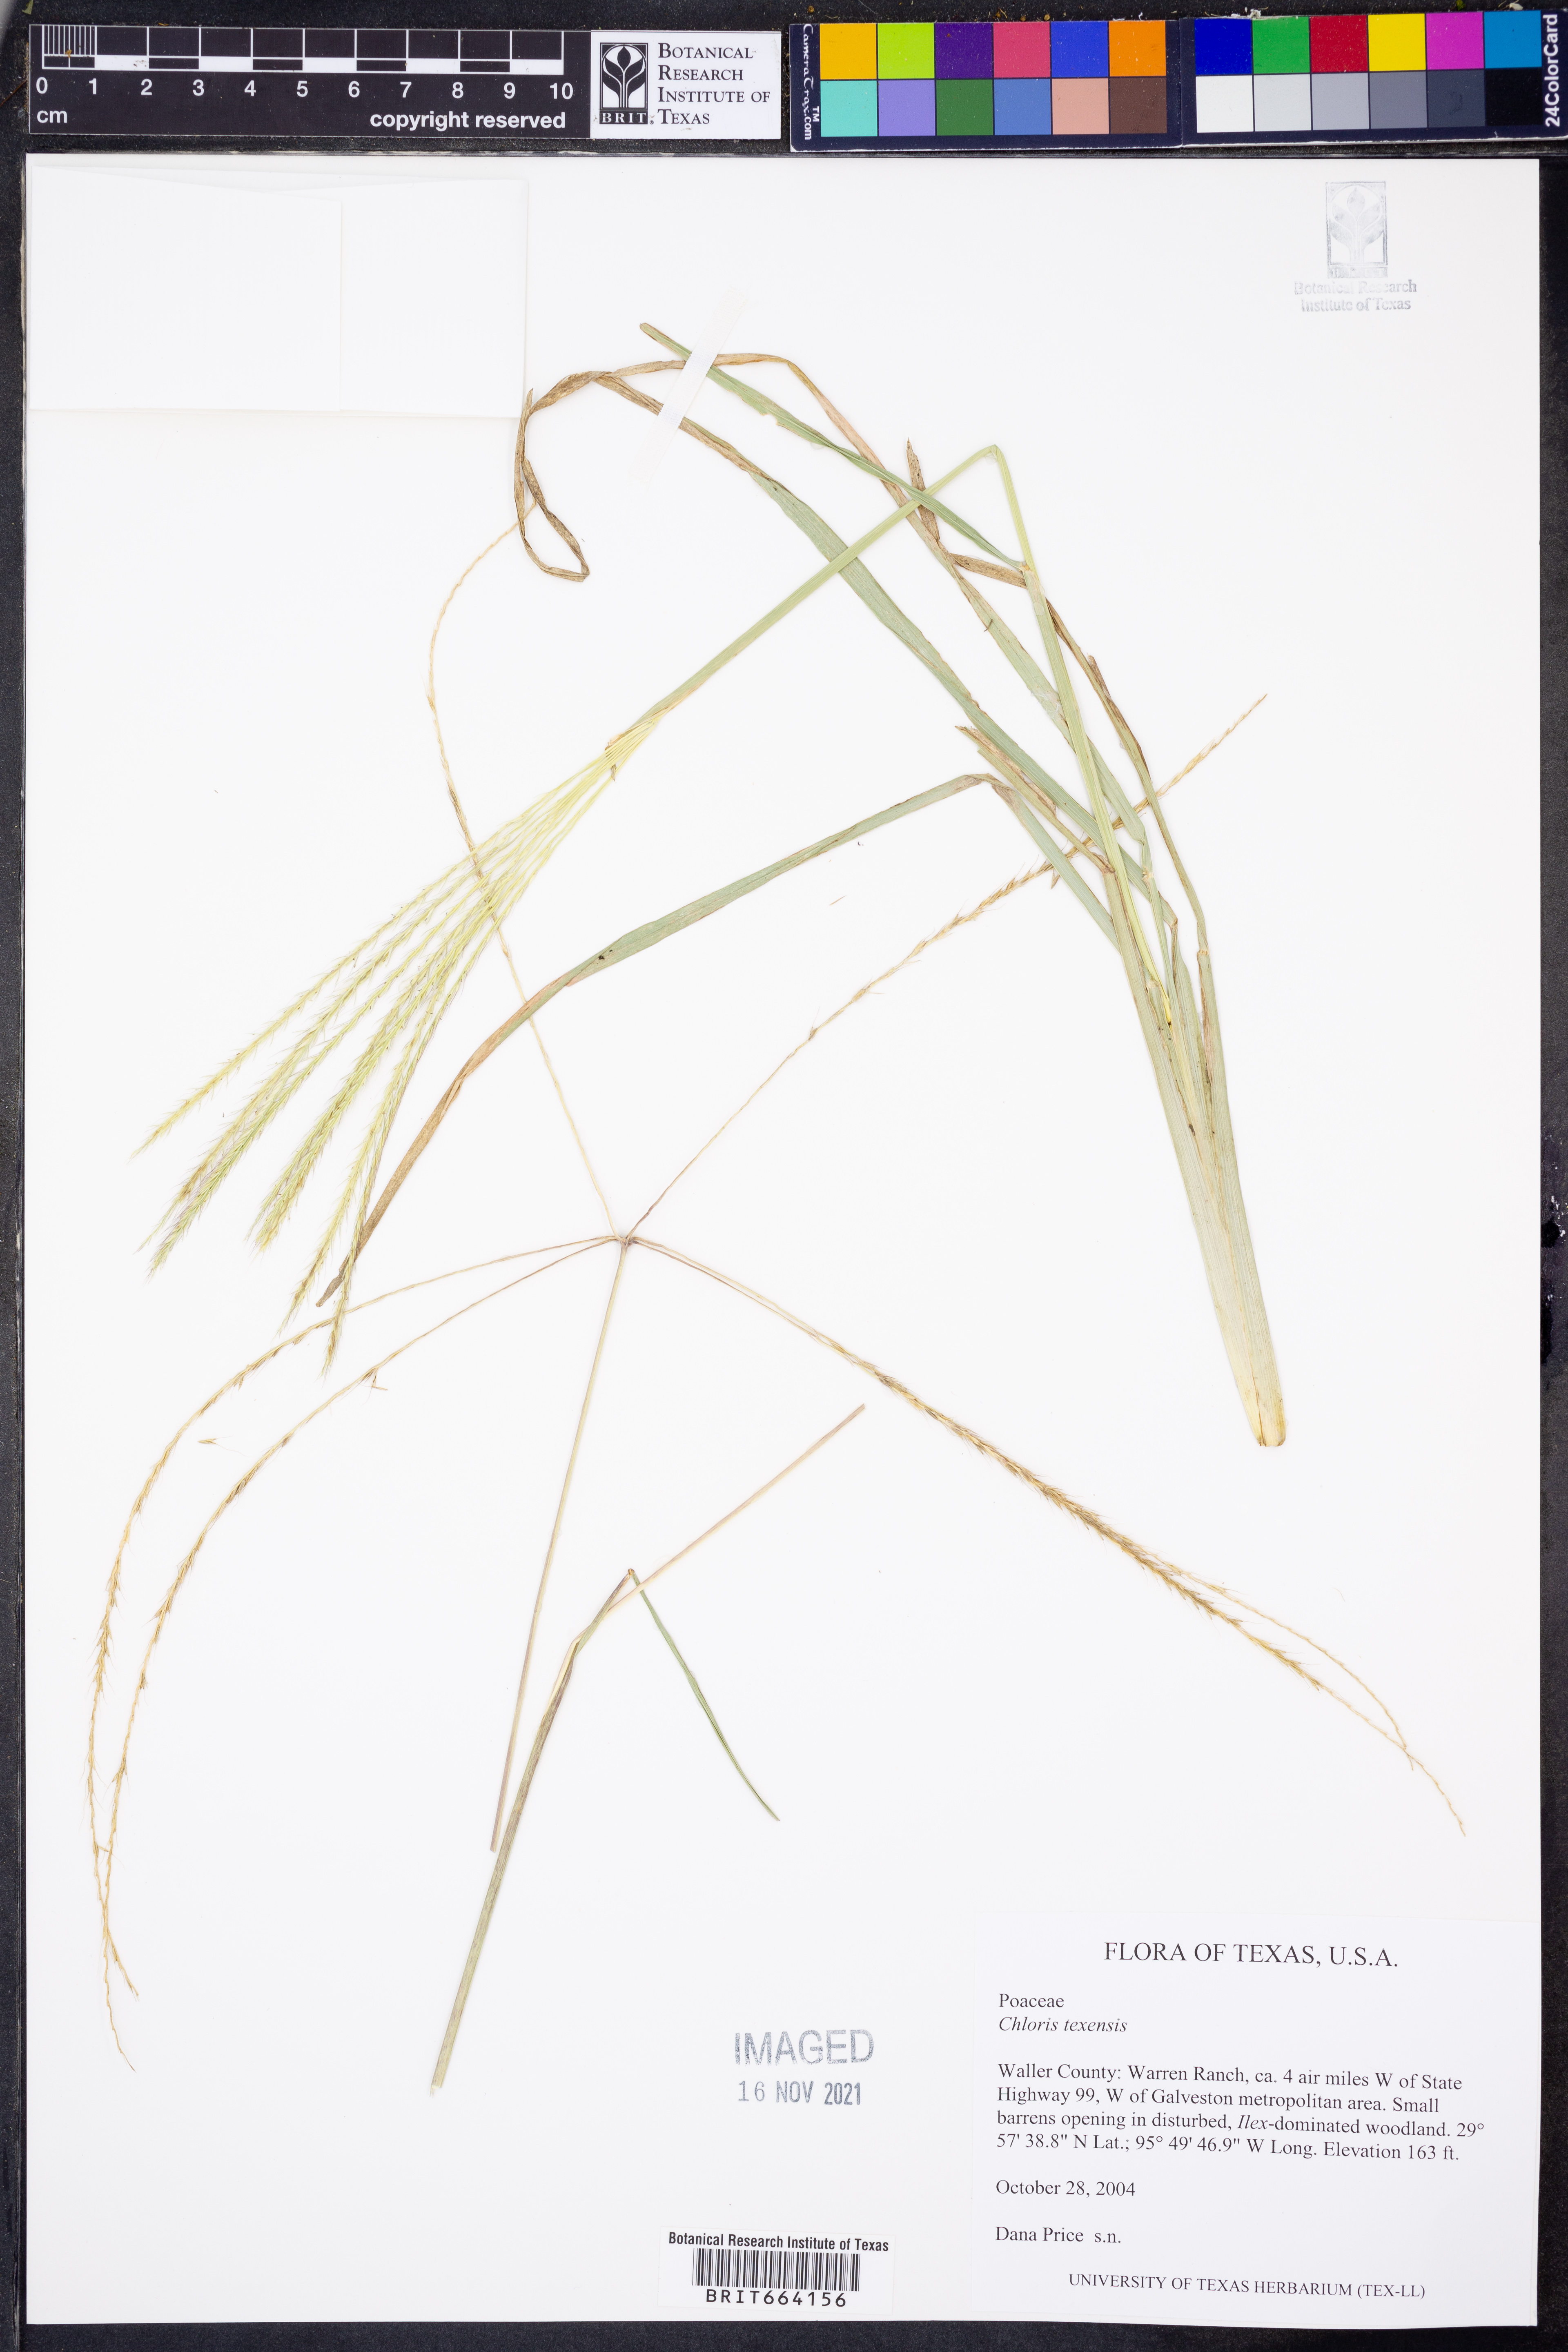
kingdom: Plantae
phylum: Tracheophyta
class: Liliopsida
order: Poales
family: Poaceae
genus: Chloris
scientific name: Chloris texensis
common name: Texas windmill grass
